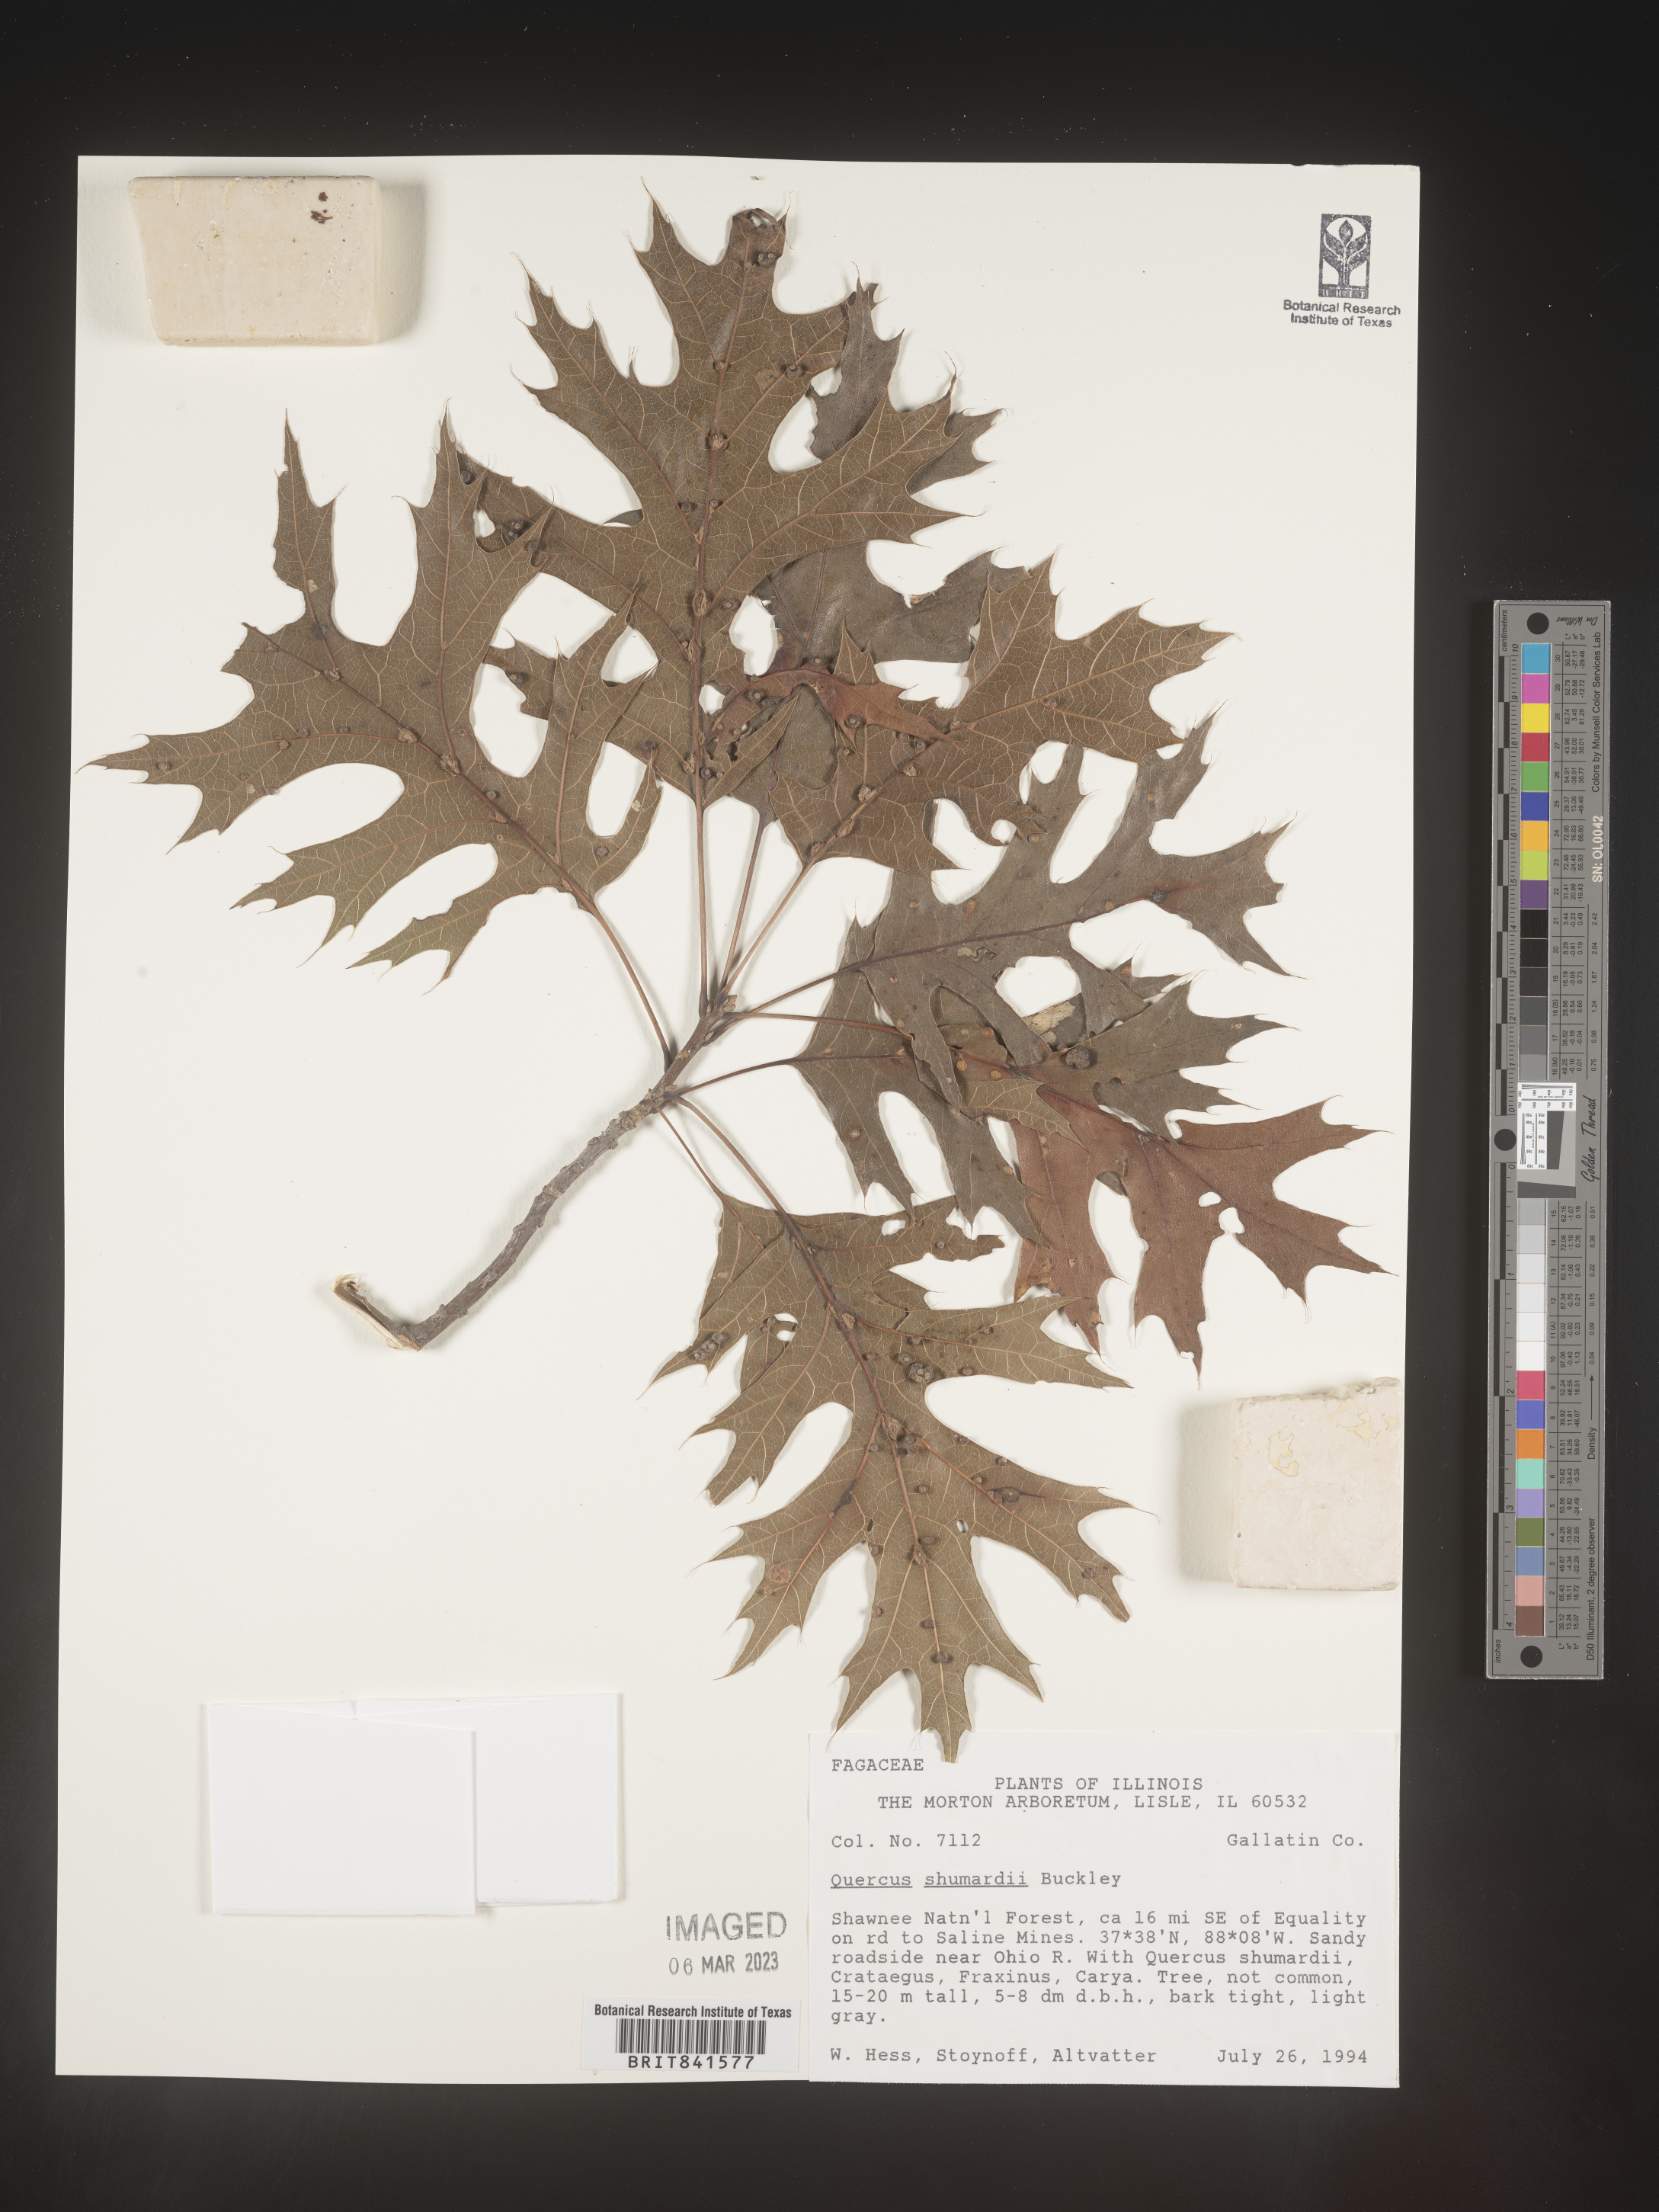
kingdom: Plantae
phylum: Tracheophyta
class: Magnoliopsida
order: Fagales
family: Fagaceae
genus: Quercus
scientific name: Quercus shumardii
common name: Shumard oak
